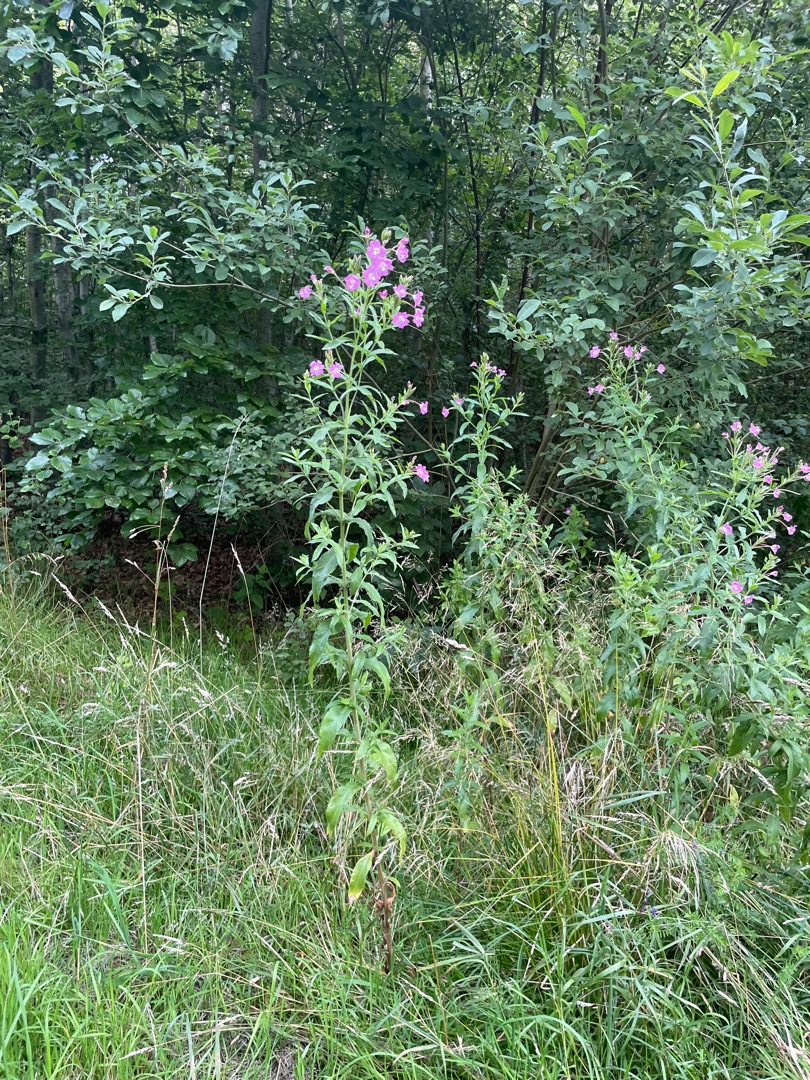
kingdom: Plantae
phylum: Tracheophyta
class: Magnoliopsida
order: Myrtales
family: Onagraceae
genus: Epilobium
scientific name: Epilobium hirsutum
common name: Lådden dueurt
